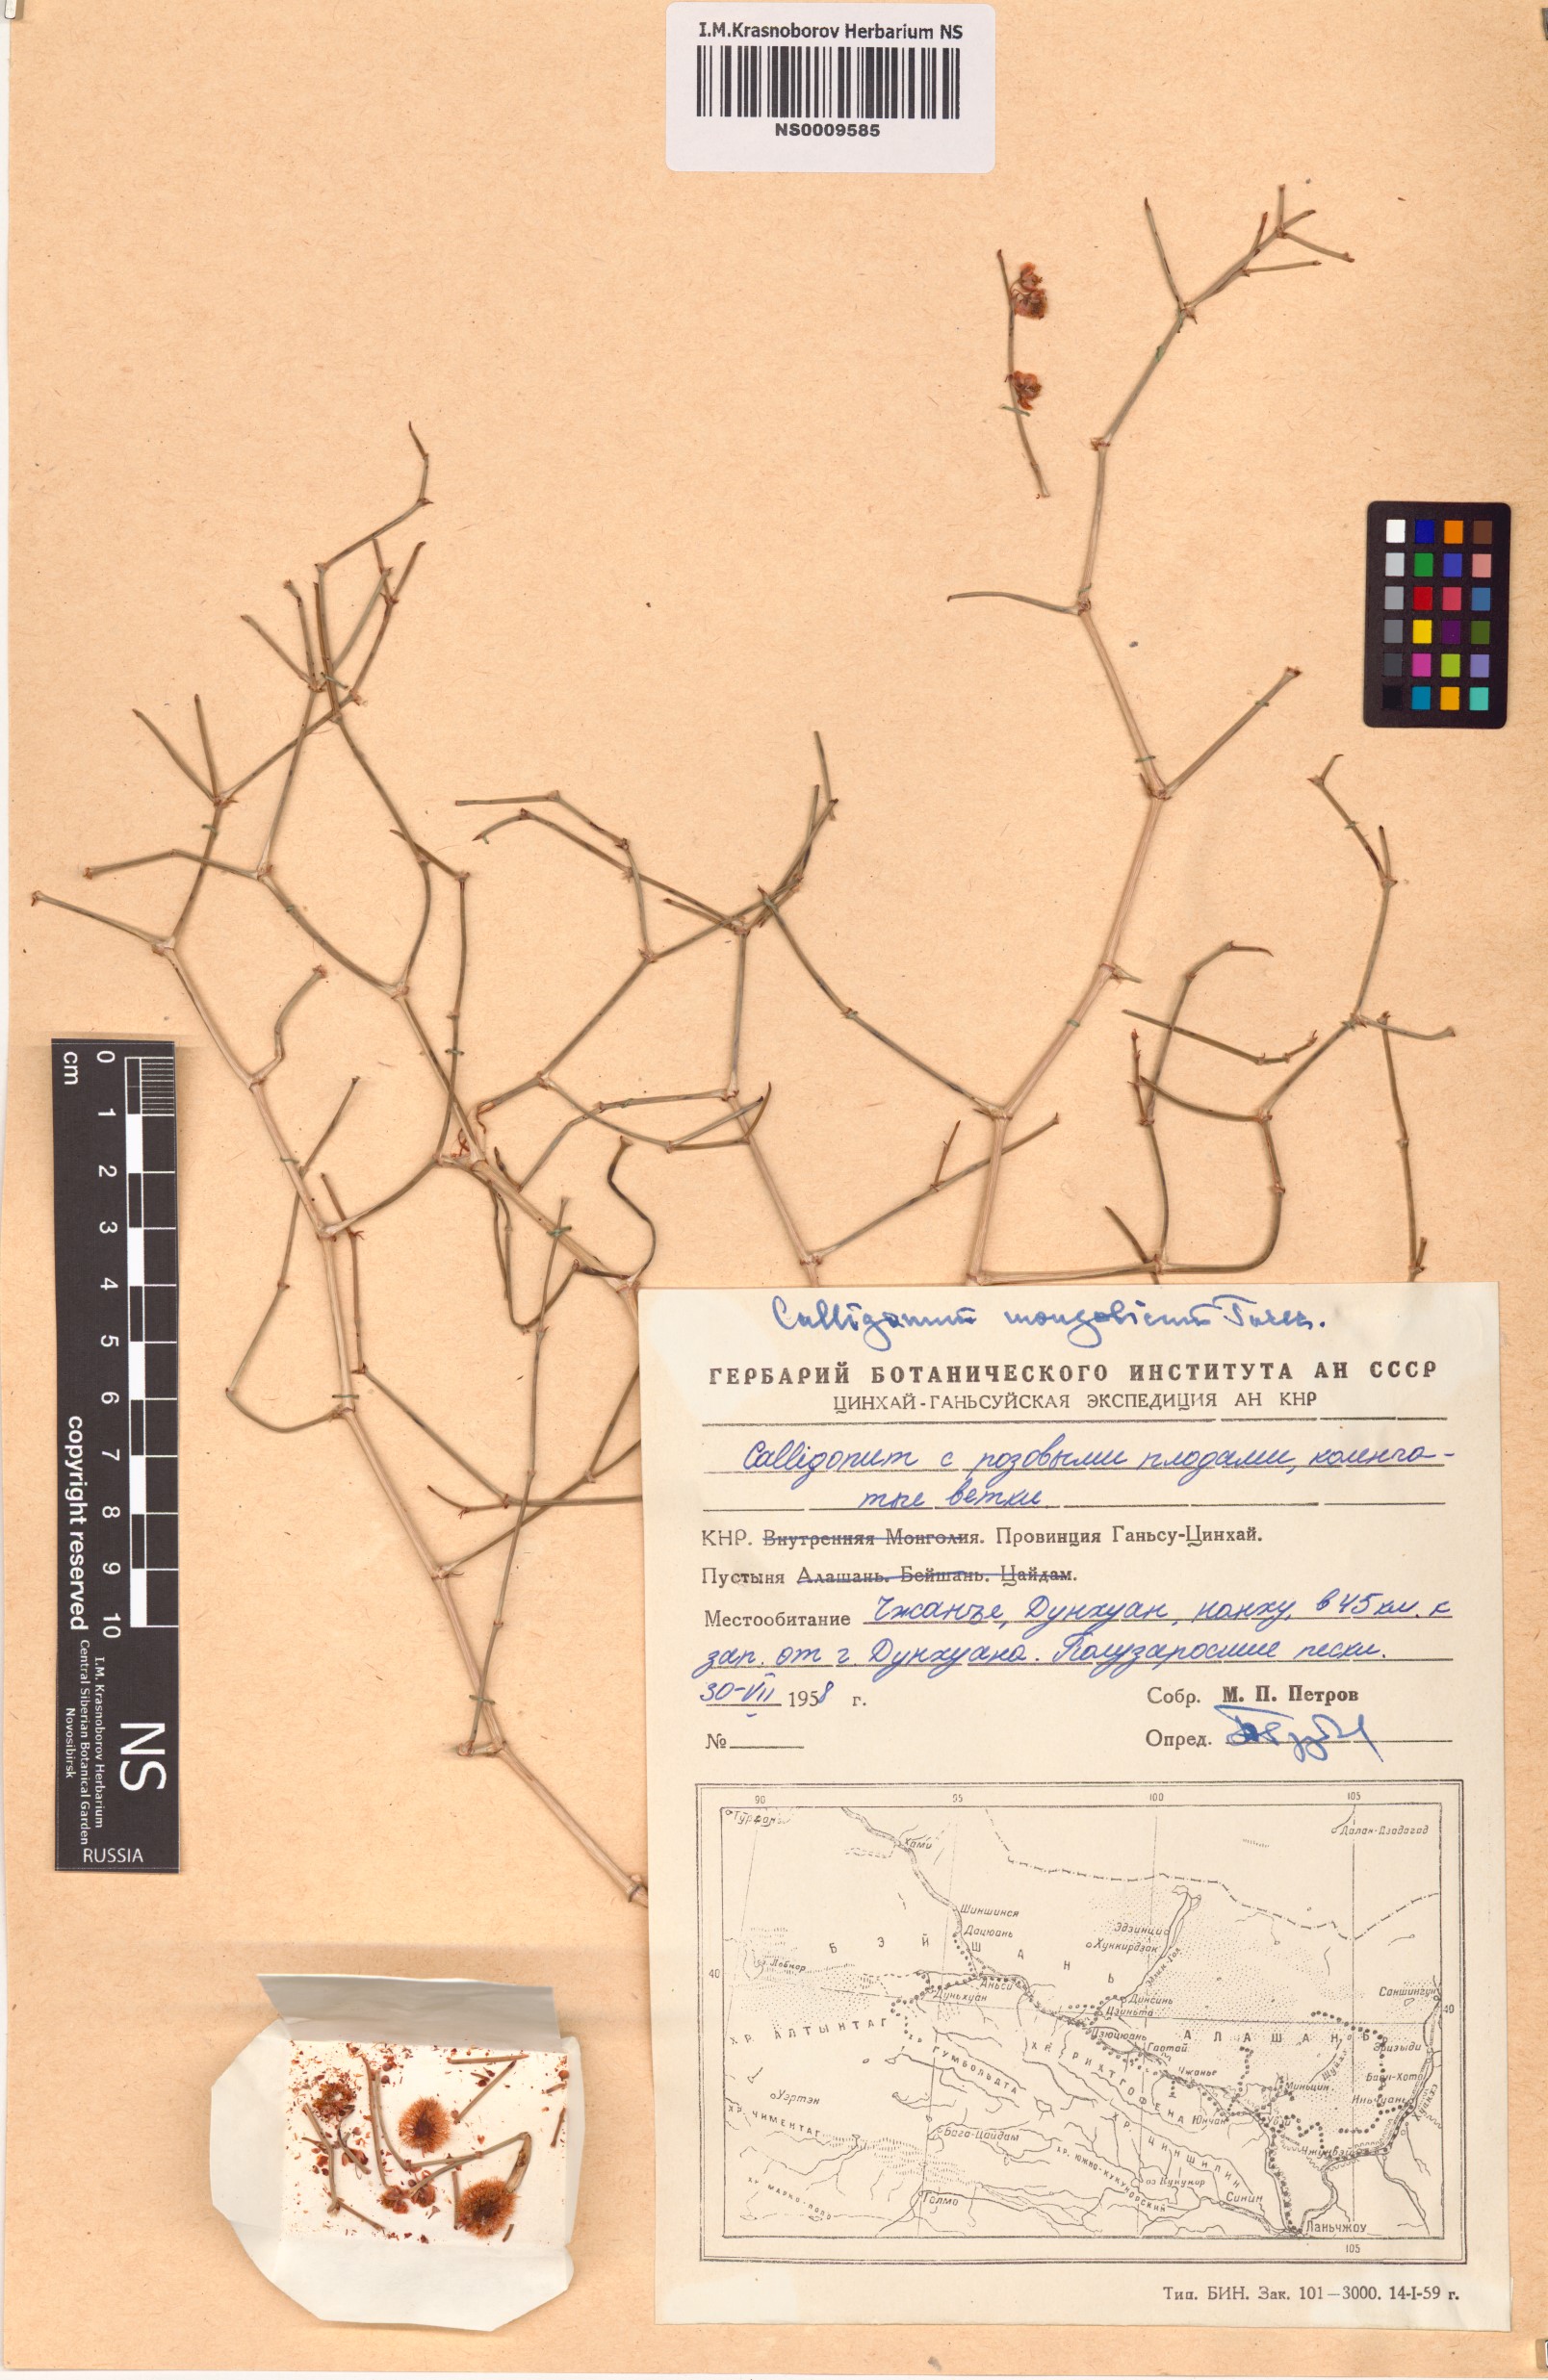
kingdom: Plantae
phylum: Tracheophyta
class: Magnoliopsida
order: Caryophyllales
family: Polygonaceae
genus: Calligonum
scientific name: Calligonum mongolicum
